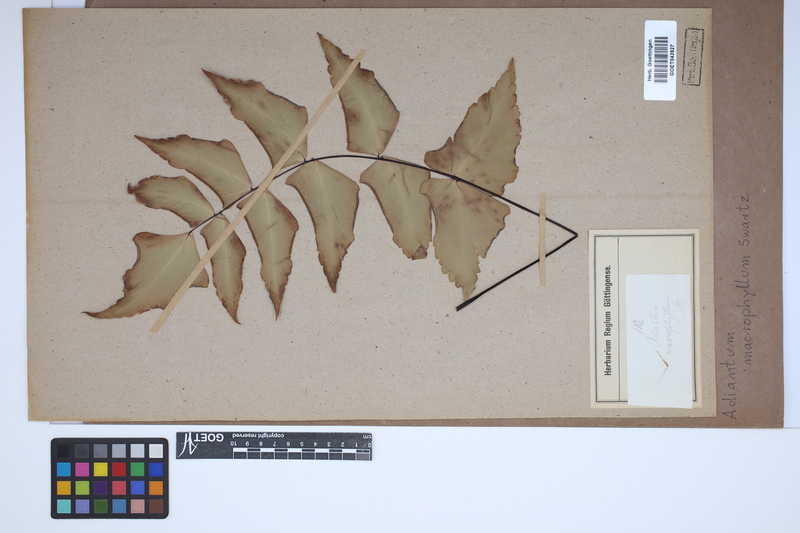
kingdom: Plantae
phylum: Tracheophyta
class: Polypodiopsida
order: Polypodiales
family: Pteridaceae
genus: Adiantum
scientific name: Adiantum macrophyllum
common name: Largeleaf maidenhair
